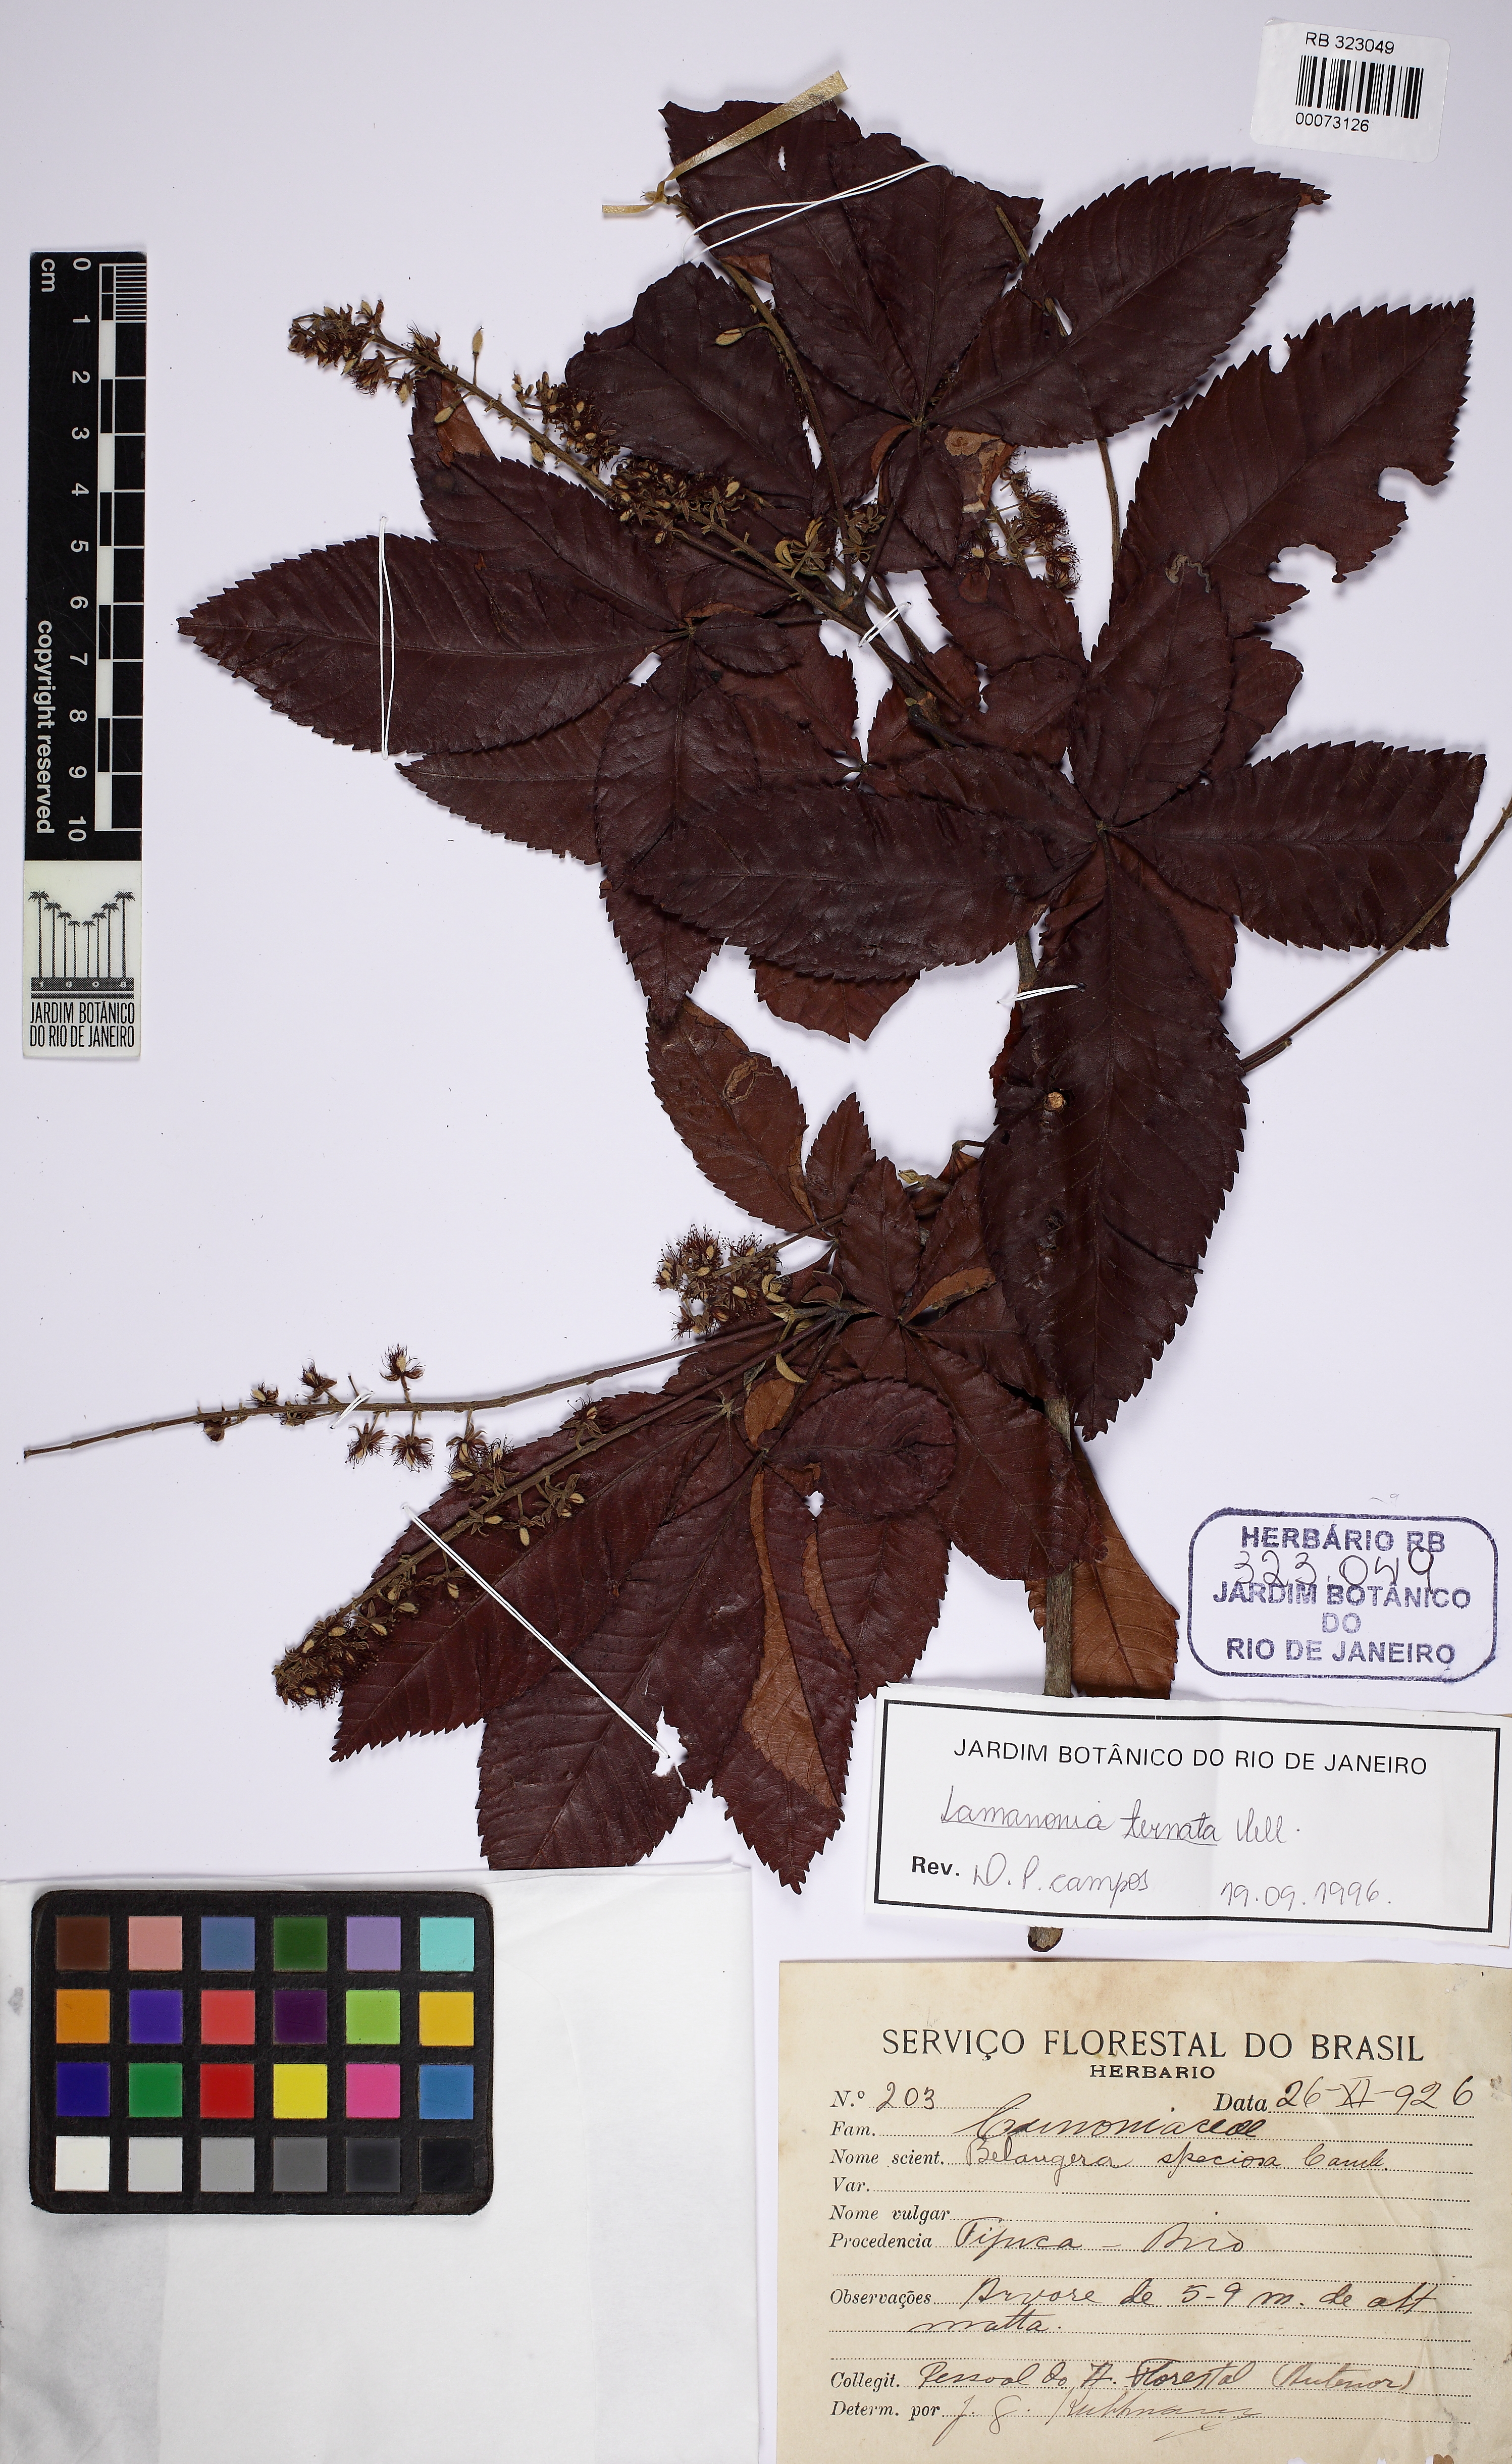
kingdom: Plantae
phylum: Tracheophyta
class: Magnoliopsida
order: Oxalidales
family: Cunoniaceae
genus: Lamanonia
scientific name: Lamanonia ternata
